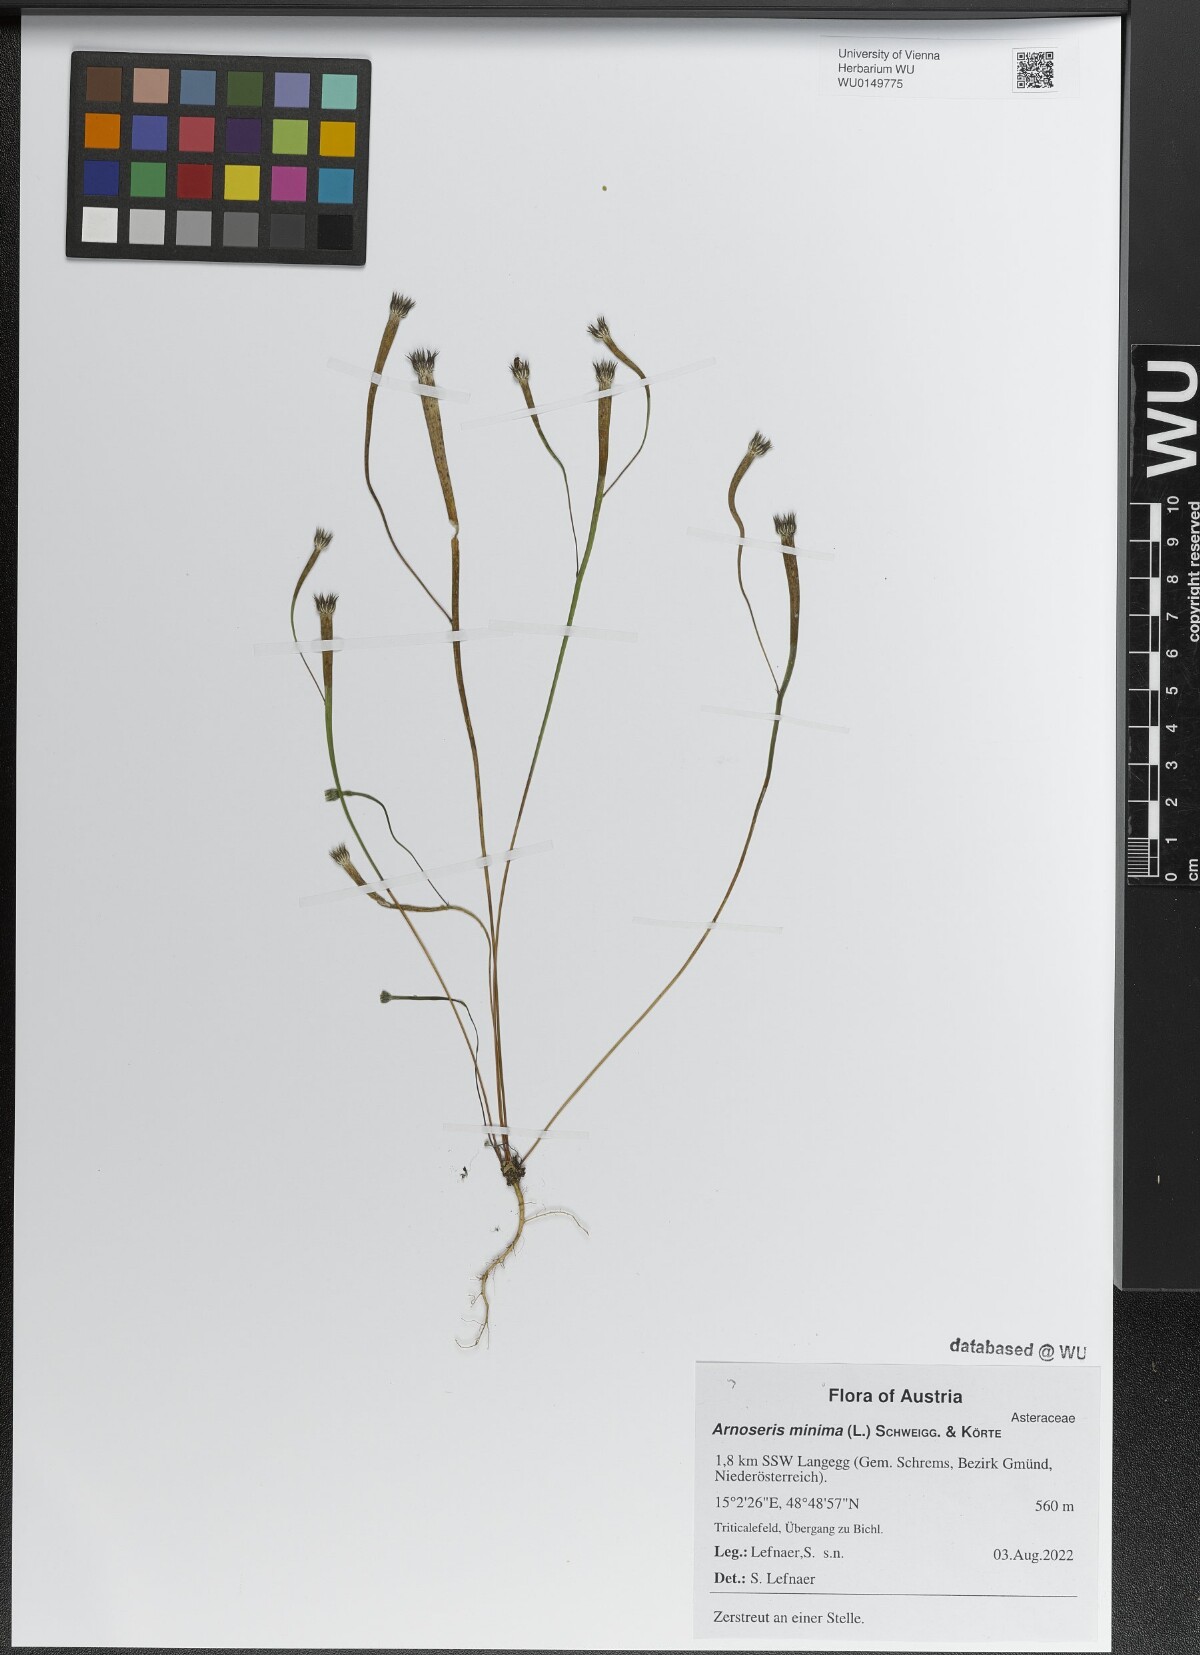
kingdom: Plantae
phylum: Tracheophyta
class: Magnoliopsida
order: Asterales
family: Asteraceae
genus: Arnoseris
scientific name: Arnoseris minima
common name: Lamb's succory
